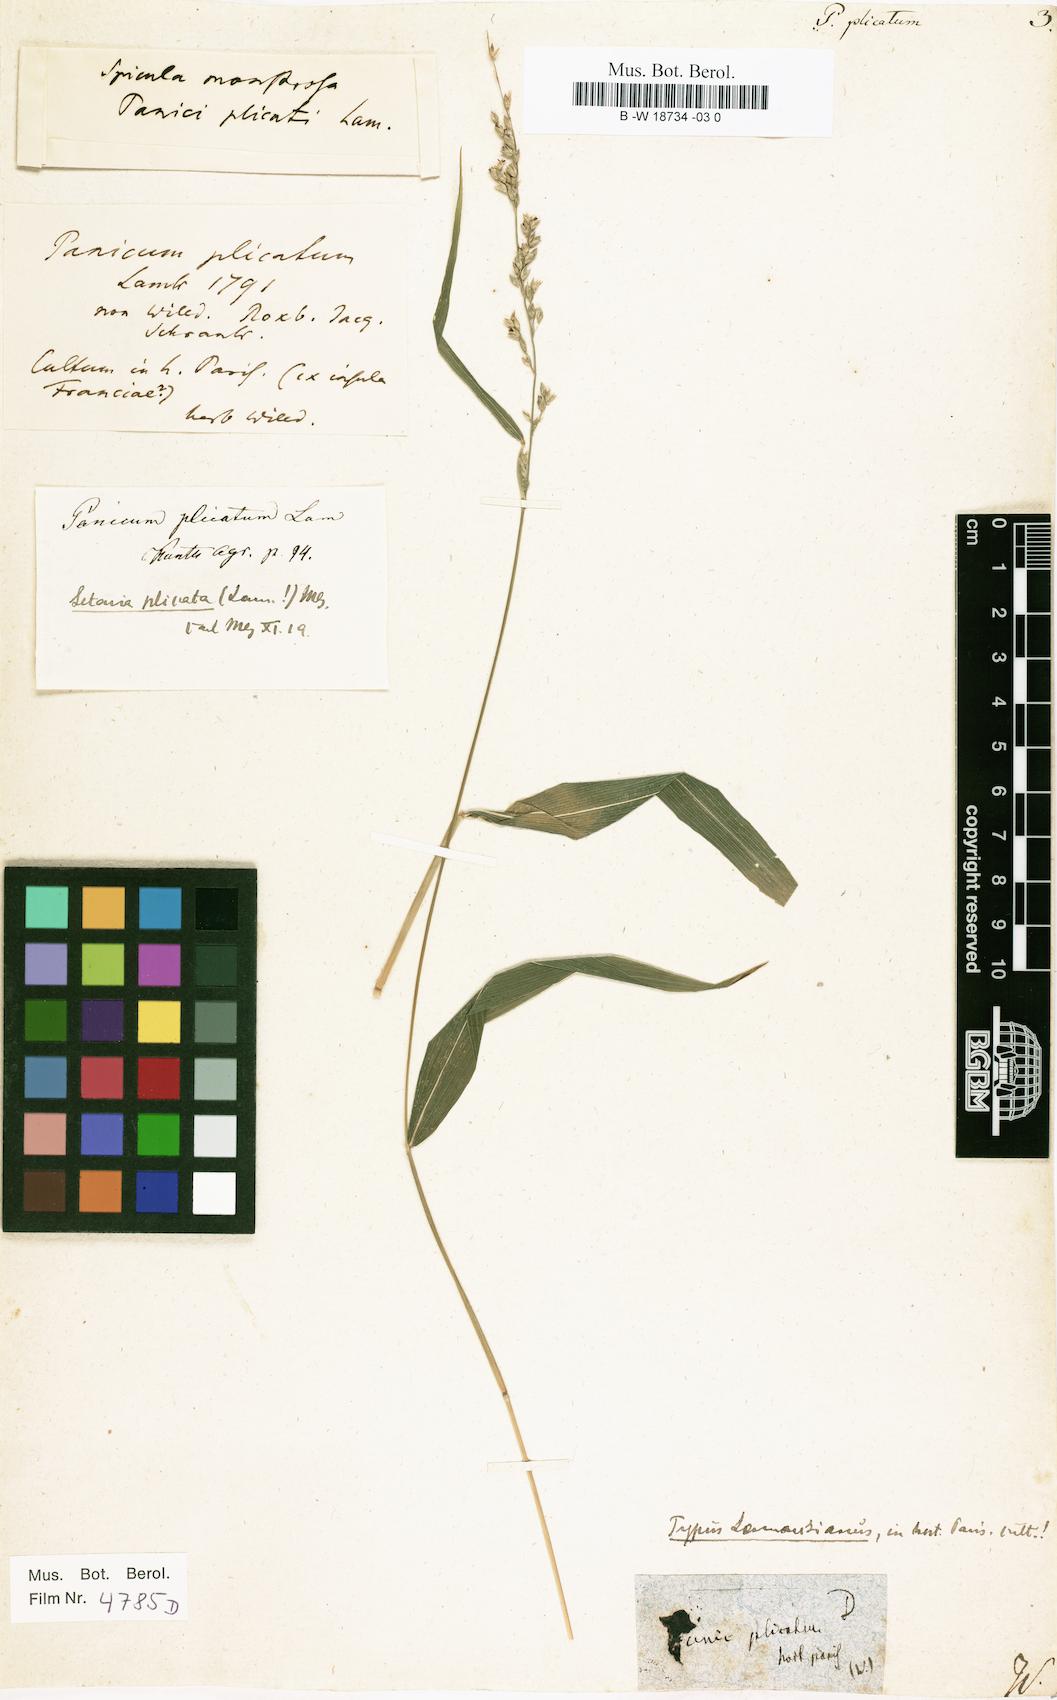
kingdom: Plantae
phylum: Tracheophyta
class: Liliopsida
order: Poales
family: Poaceae
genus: Setaria
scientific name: Setaria plicata
